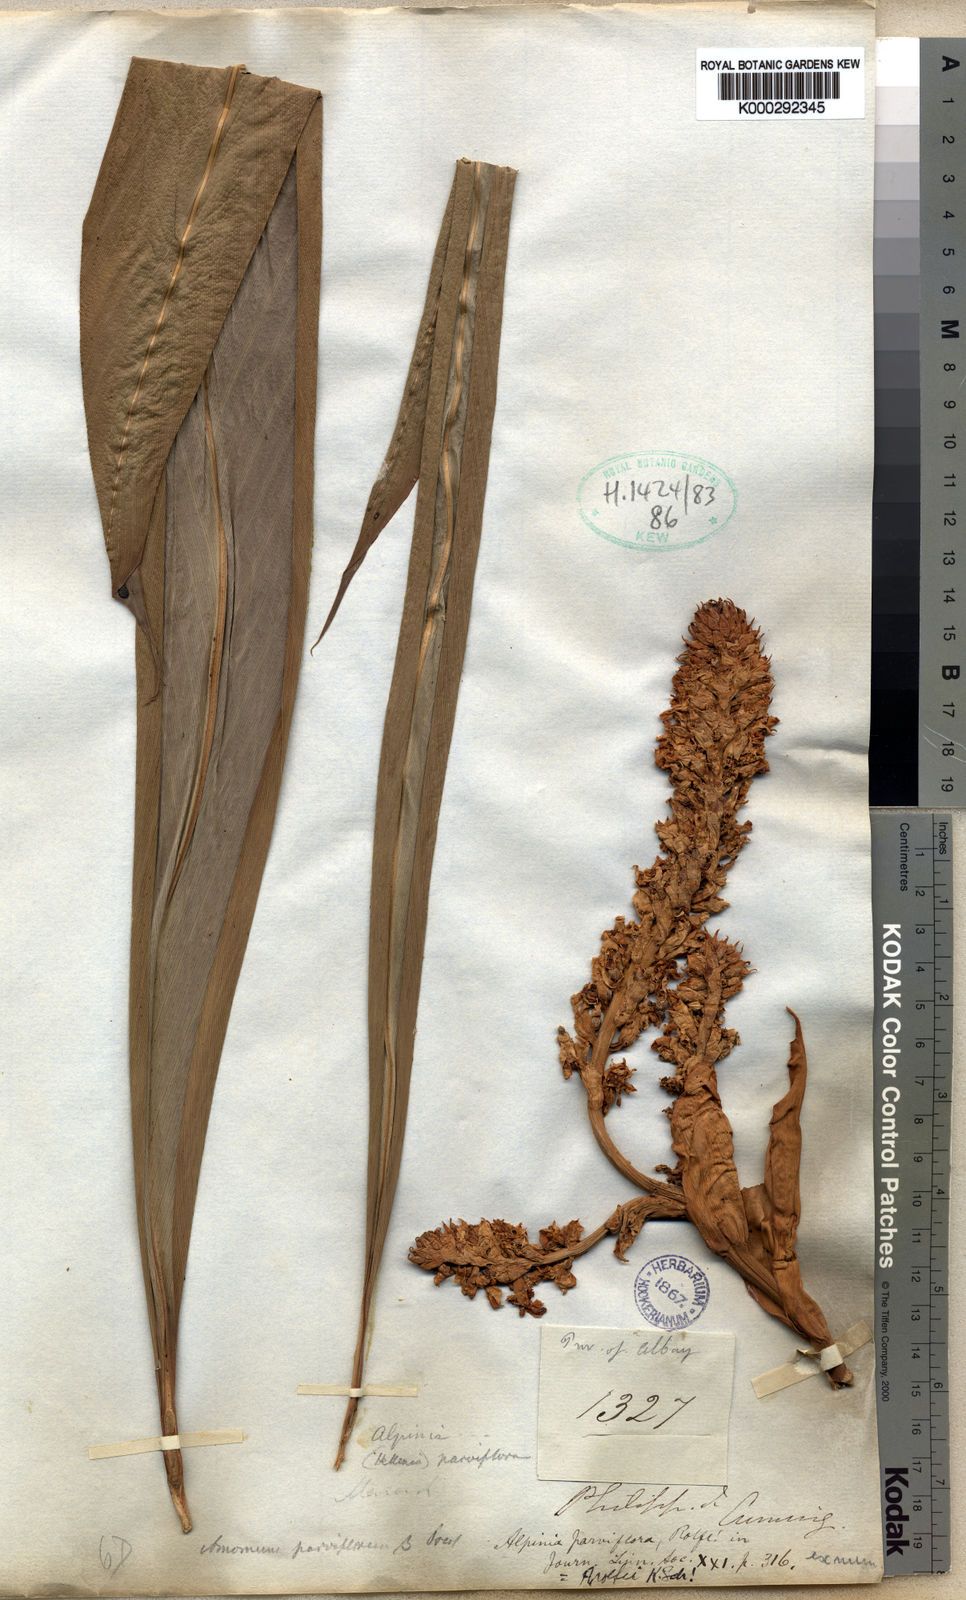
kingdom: Plantae
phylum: Tracheophyta
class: Liliopsida
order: Zingiberales
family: Zingiberaceae
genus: Plagiostachys
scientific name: Plagiostachys rolfei
